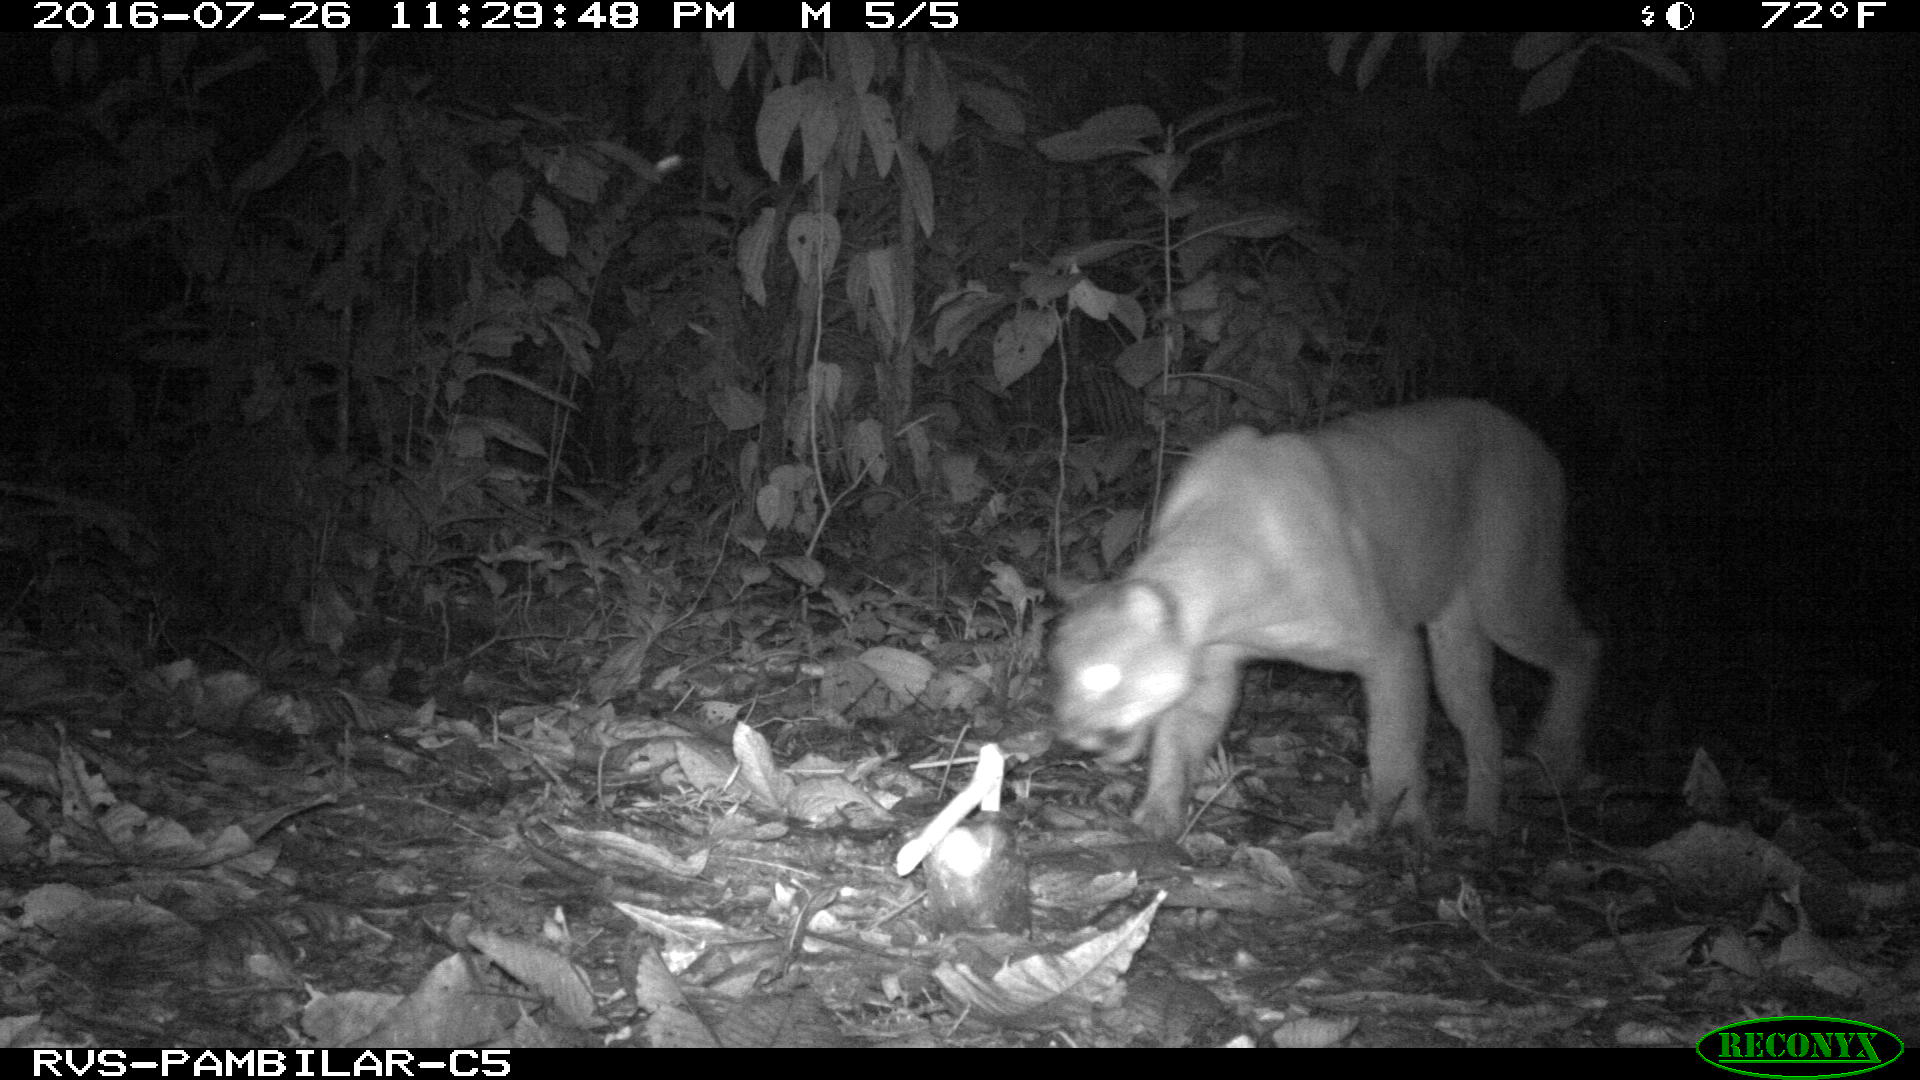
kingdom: Animalia
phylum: Chordata
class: Mammalia
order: Carnivora
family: Felidae
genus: Puma
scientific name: Puma concolor
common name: Puma
